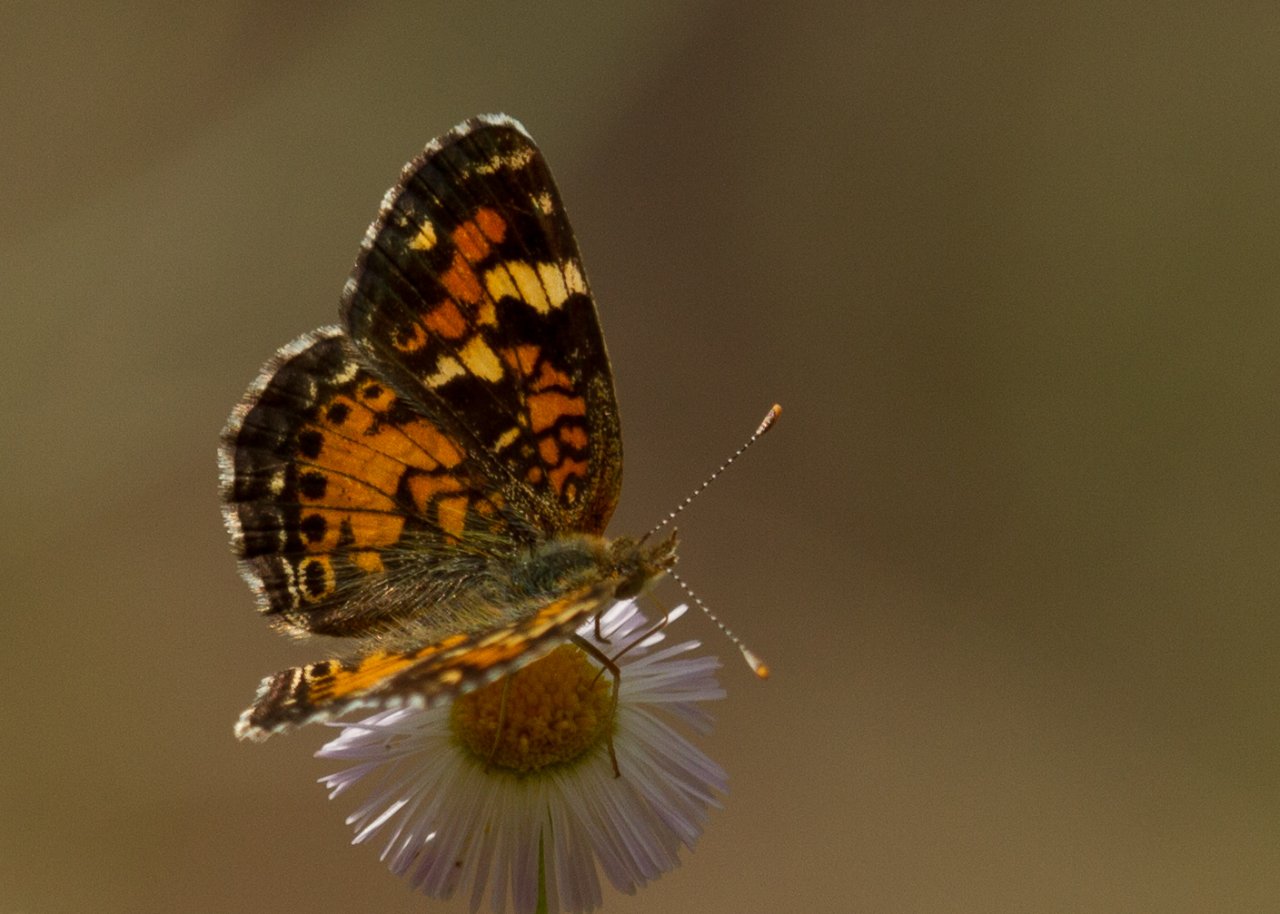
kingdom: Animalia
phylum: Arthropoda
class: Insecta
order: Lepidoptera
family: Nymphalidae
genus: Phyciodes
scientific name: Phyciodes phaon
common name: Phaon Crescent
